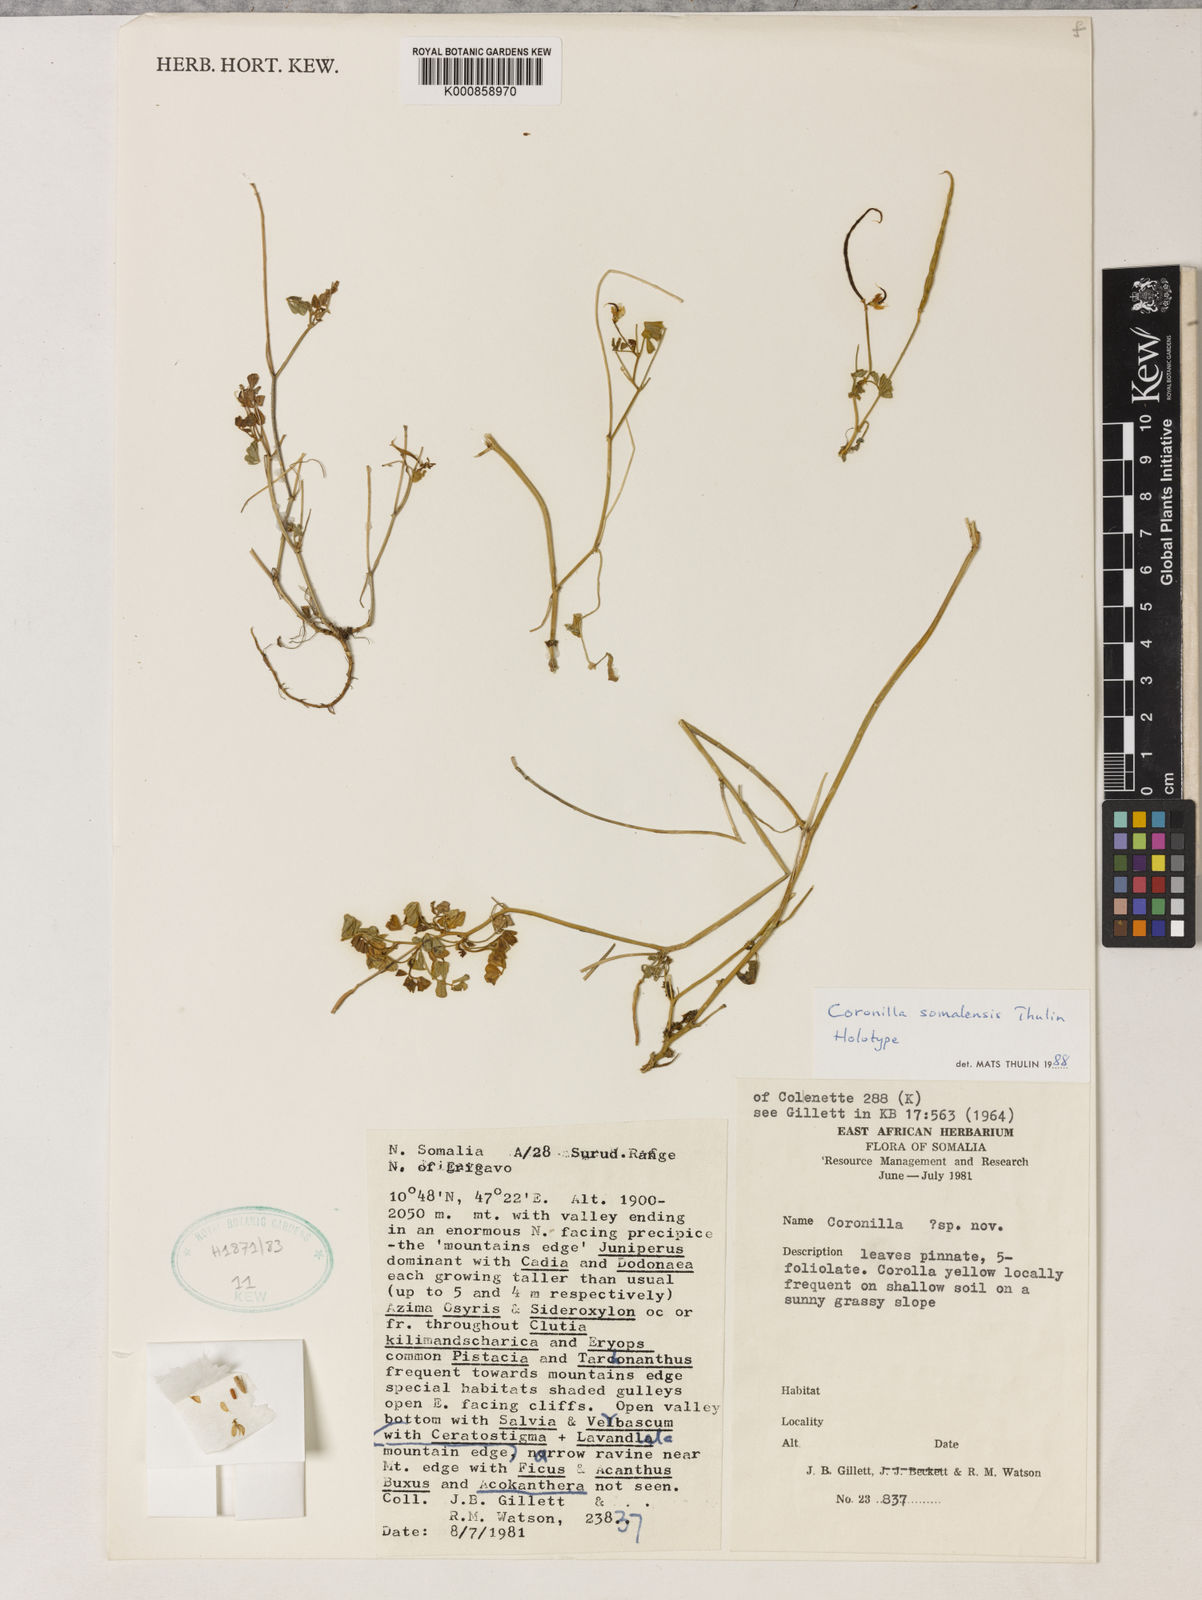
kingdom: Plantae
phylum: Tracheophyta
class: Magnoliopsida
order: Fabales
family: Fabaceae
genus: Coronilla
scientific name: Coronilla somalensis
